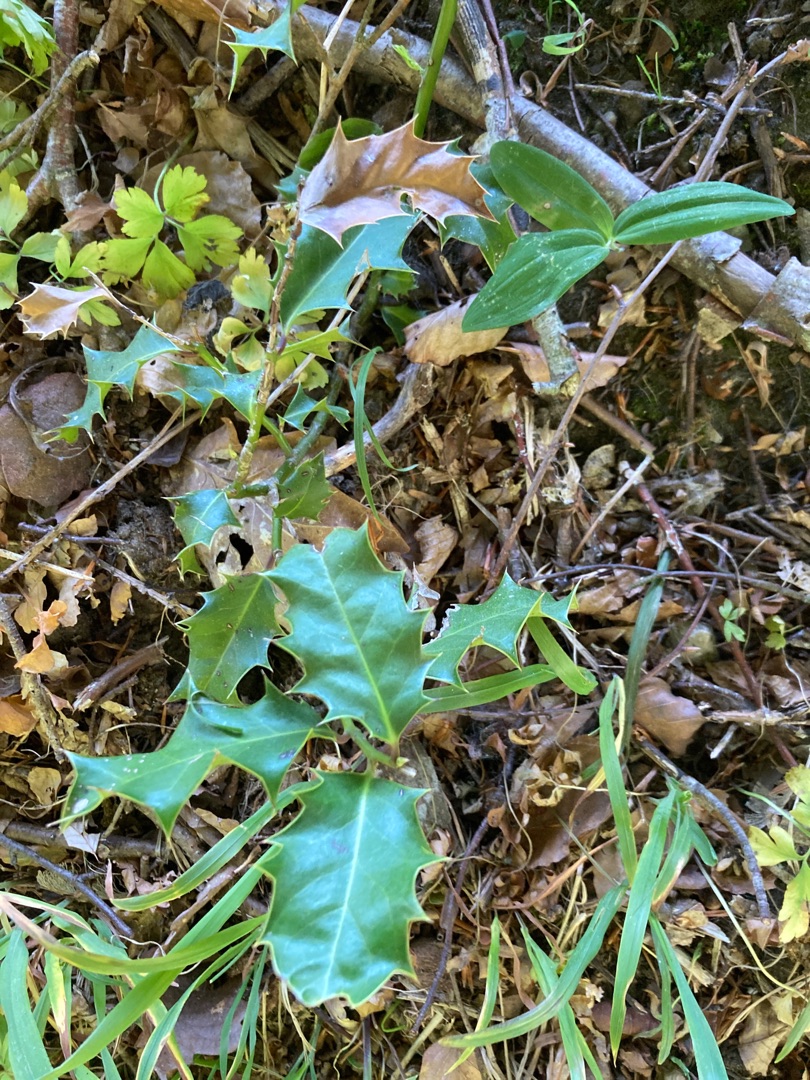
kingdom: Plantae
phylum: Tracheophyta
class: Magnoliopsida
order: Aquifoliales
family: Aquifoliaceae
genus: Ilex
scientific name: Ilex aquifolium
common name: Kristtorn
